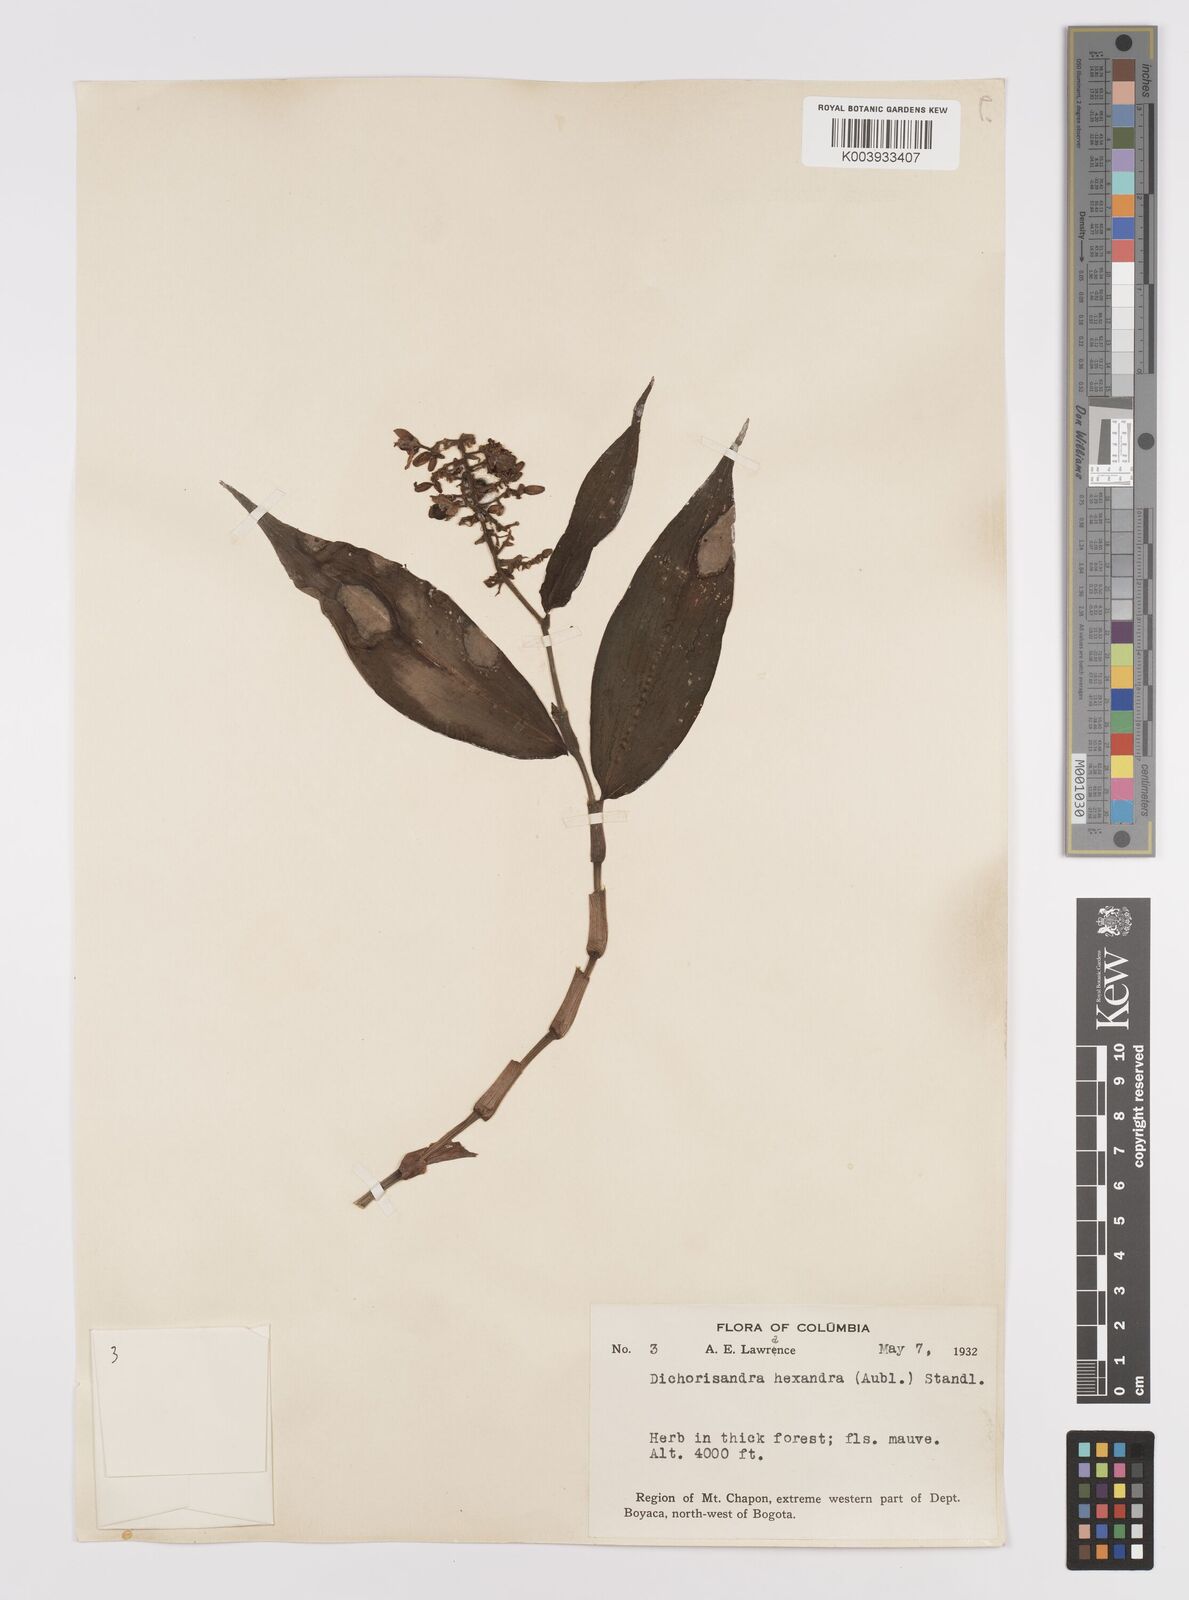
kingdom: Plantae
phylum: Tracheophyta
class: Liliopsida
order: Commelinales
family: Commelinaceae
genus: Dichorisandra
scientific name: Dichorisandra hexandra
